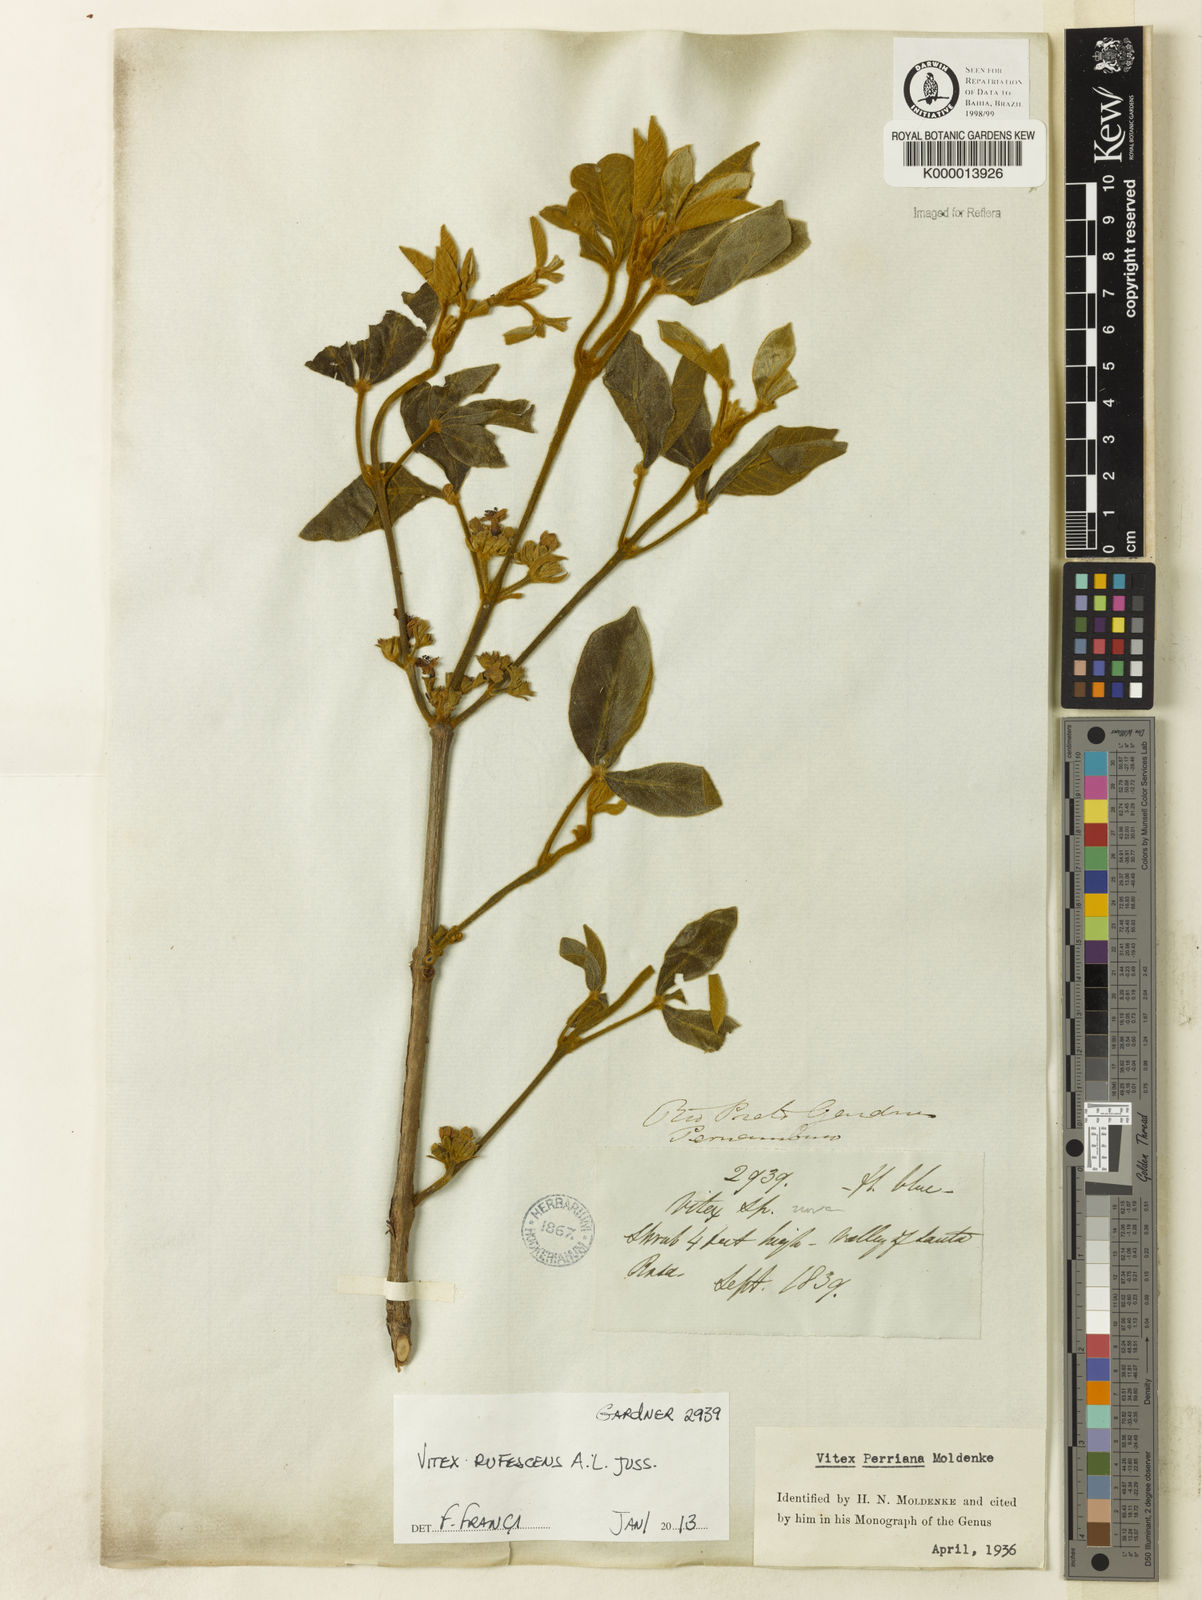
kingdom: Plantae
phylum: Tracheophyta
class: Magnoliopsida
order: Lamiales
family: Lamiaceae
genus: Vitex
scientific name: Vitex rufescens
